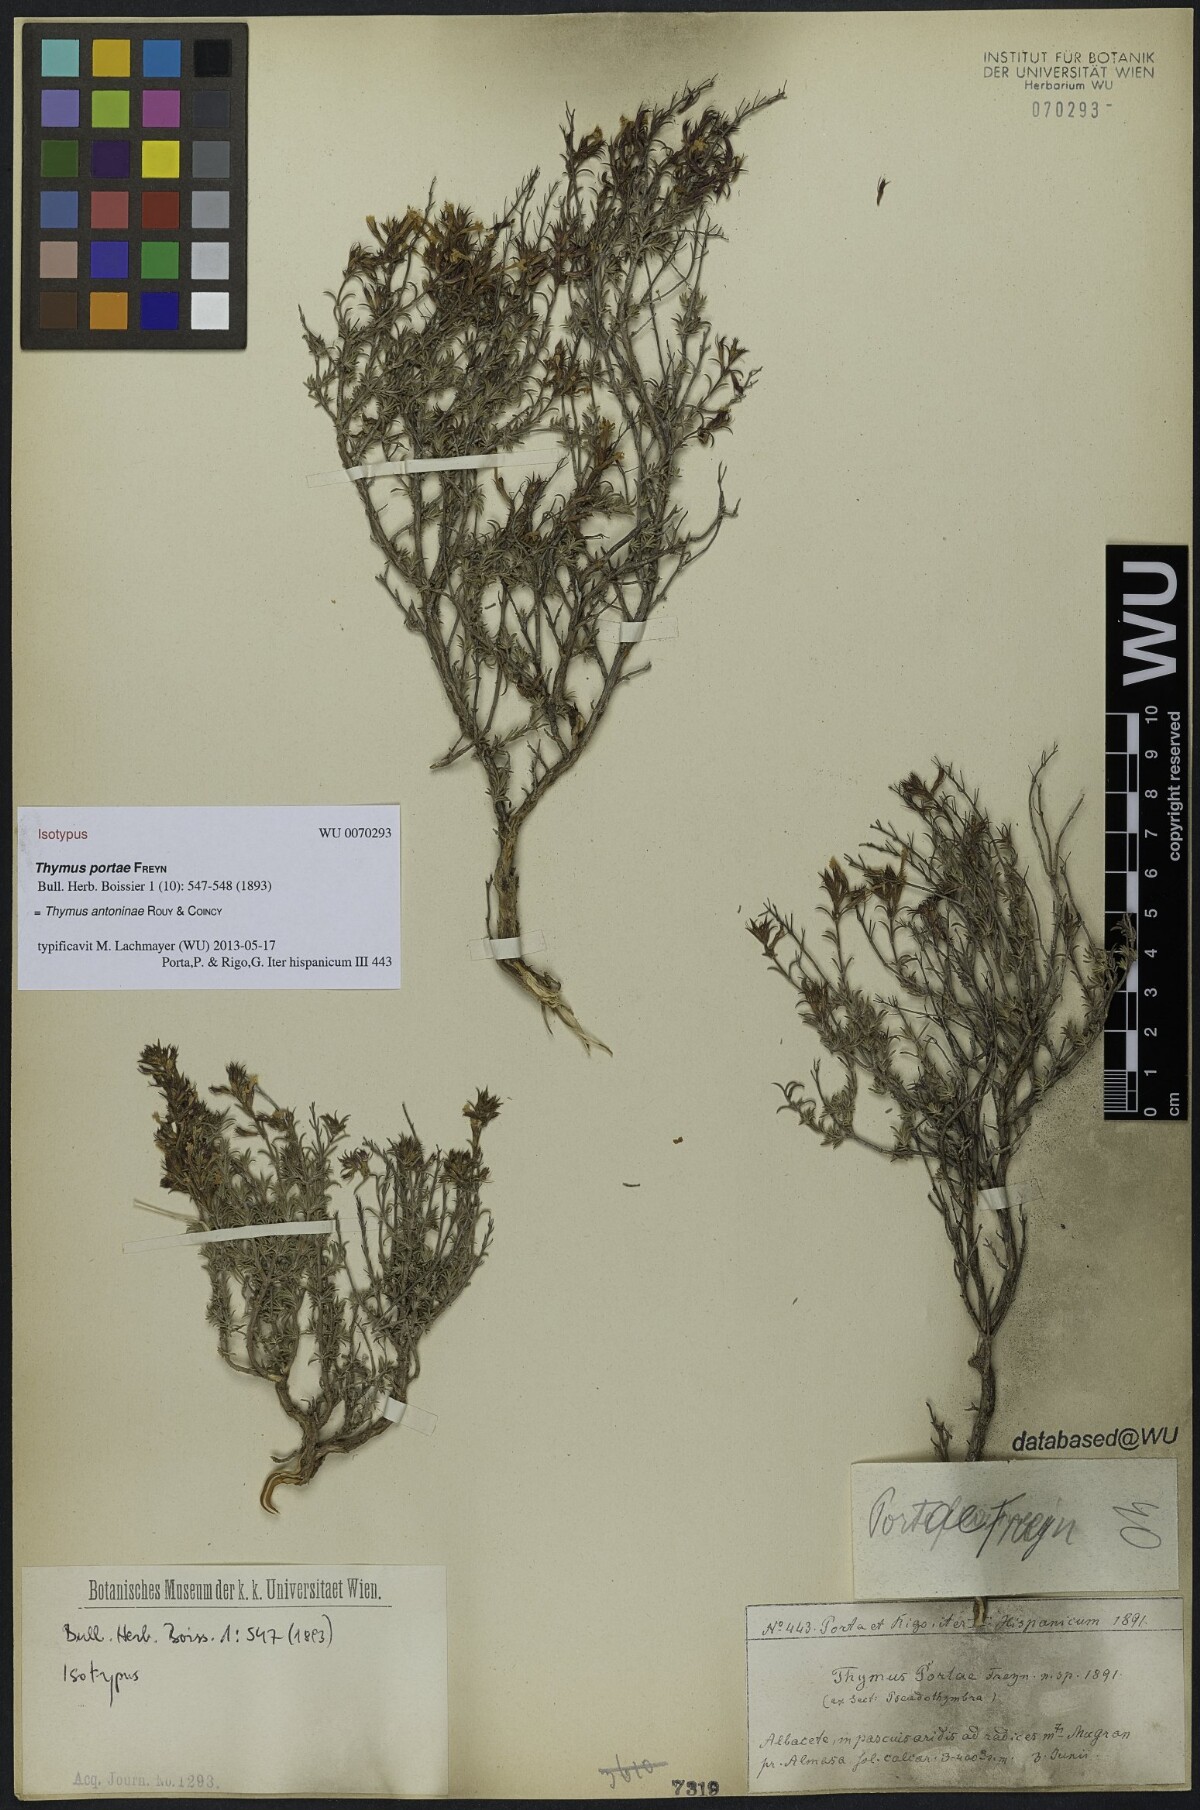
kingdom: Plantae
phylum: Tracheophyta
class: Magnoliopsida
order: Lamiales
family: Lamiaceae
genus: Thymus
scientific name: Thymus portae
